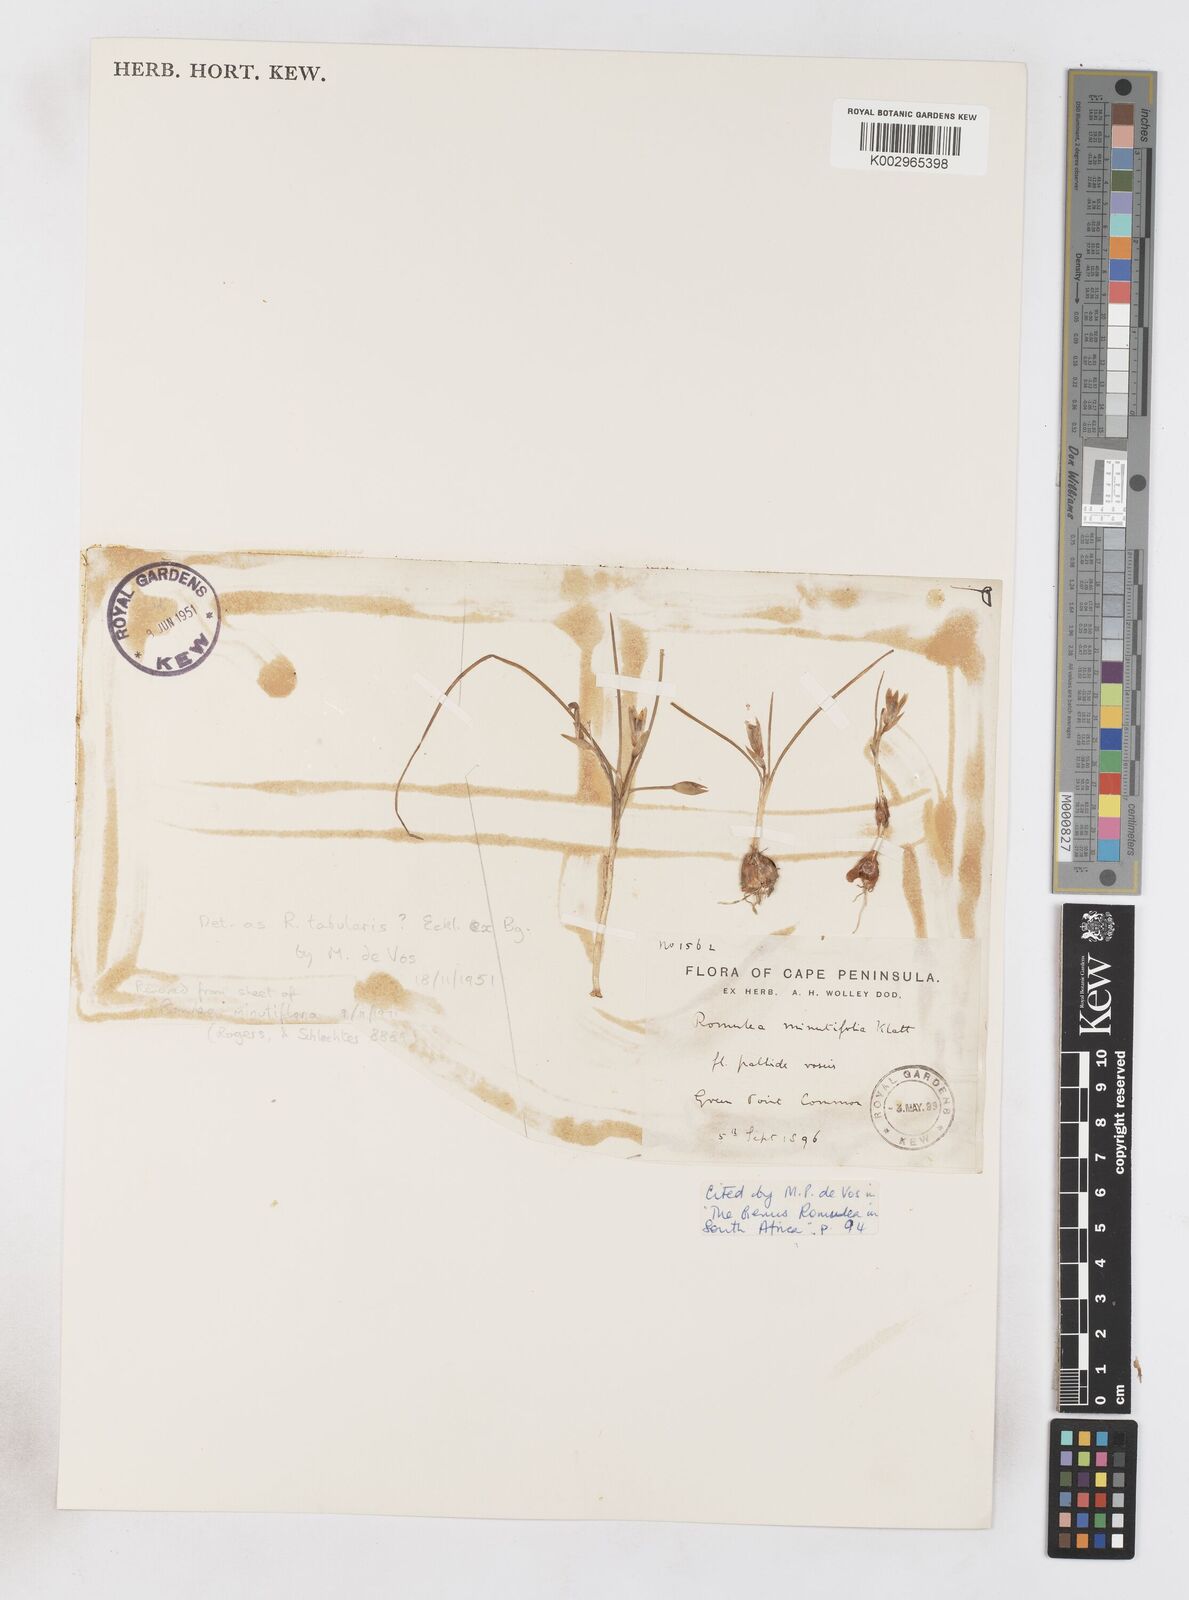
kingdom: Plantae
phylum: Tracheophyta
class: Liliopsida
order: Asparagales
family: Iridaceae
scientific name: Iridaceae
